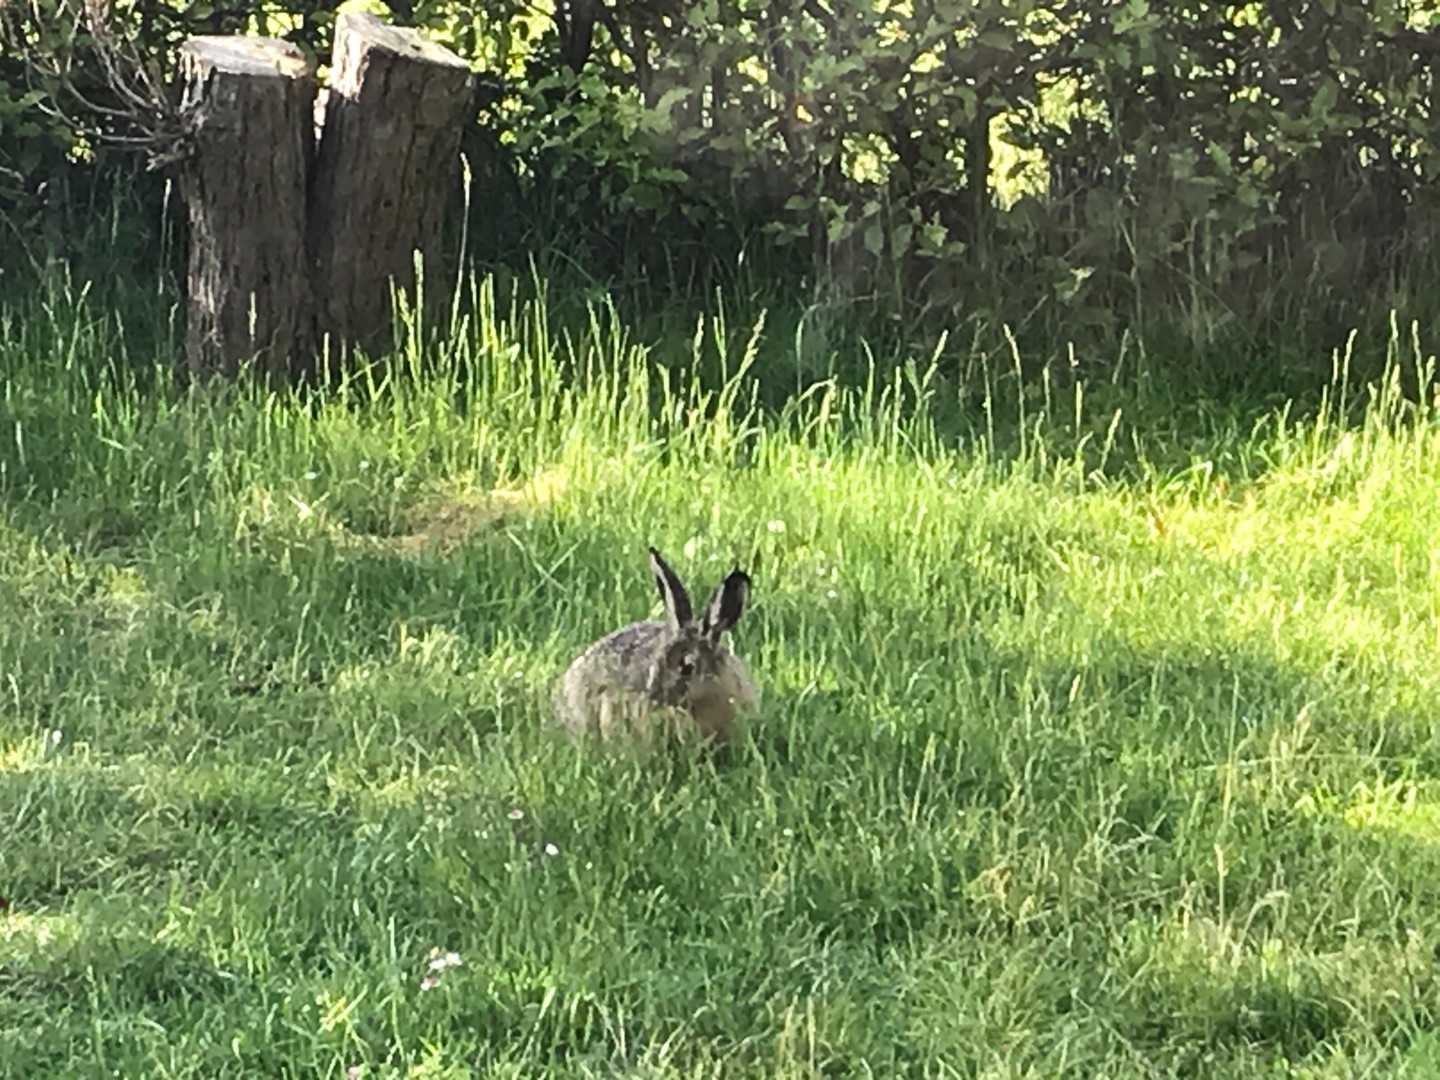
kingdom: Animalia
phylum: Chordata
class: Mammalia
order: Lagomorpha
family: Leporidae
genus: Lepus
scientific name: Lepus europaeus
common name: Hare
